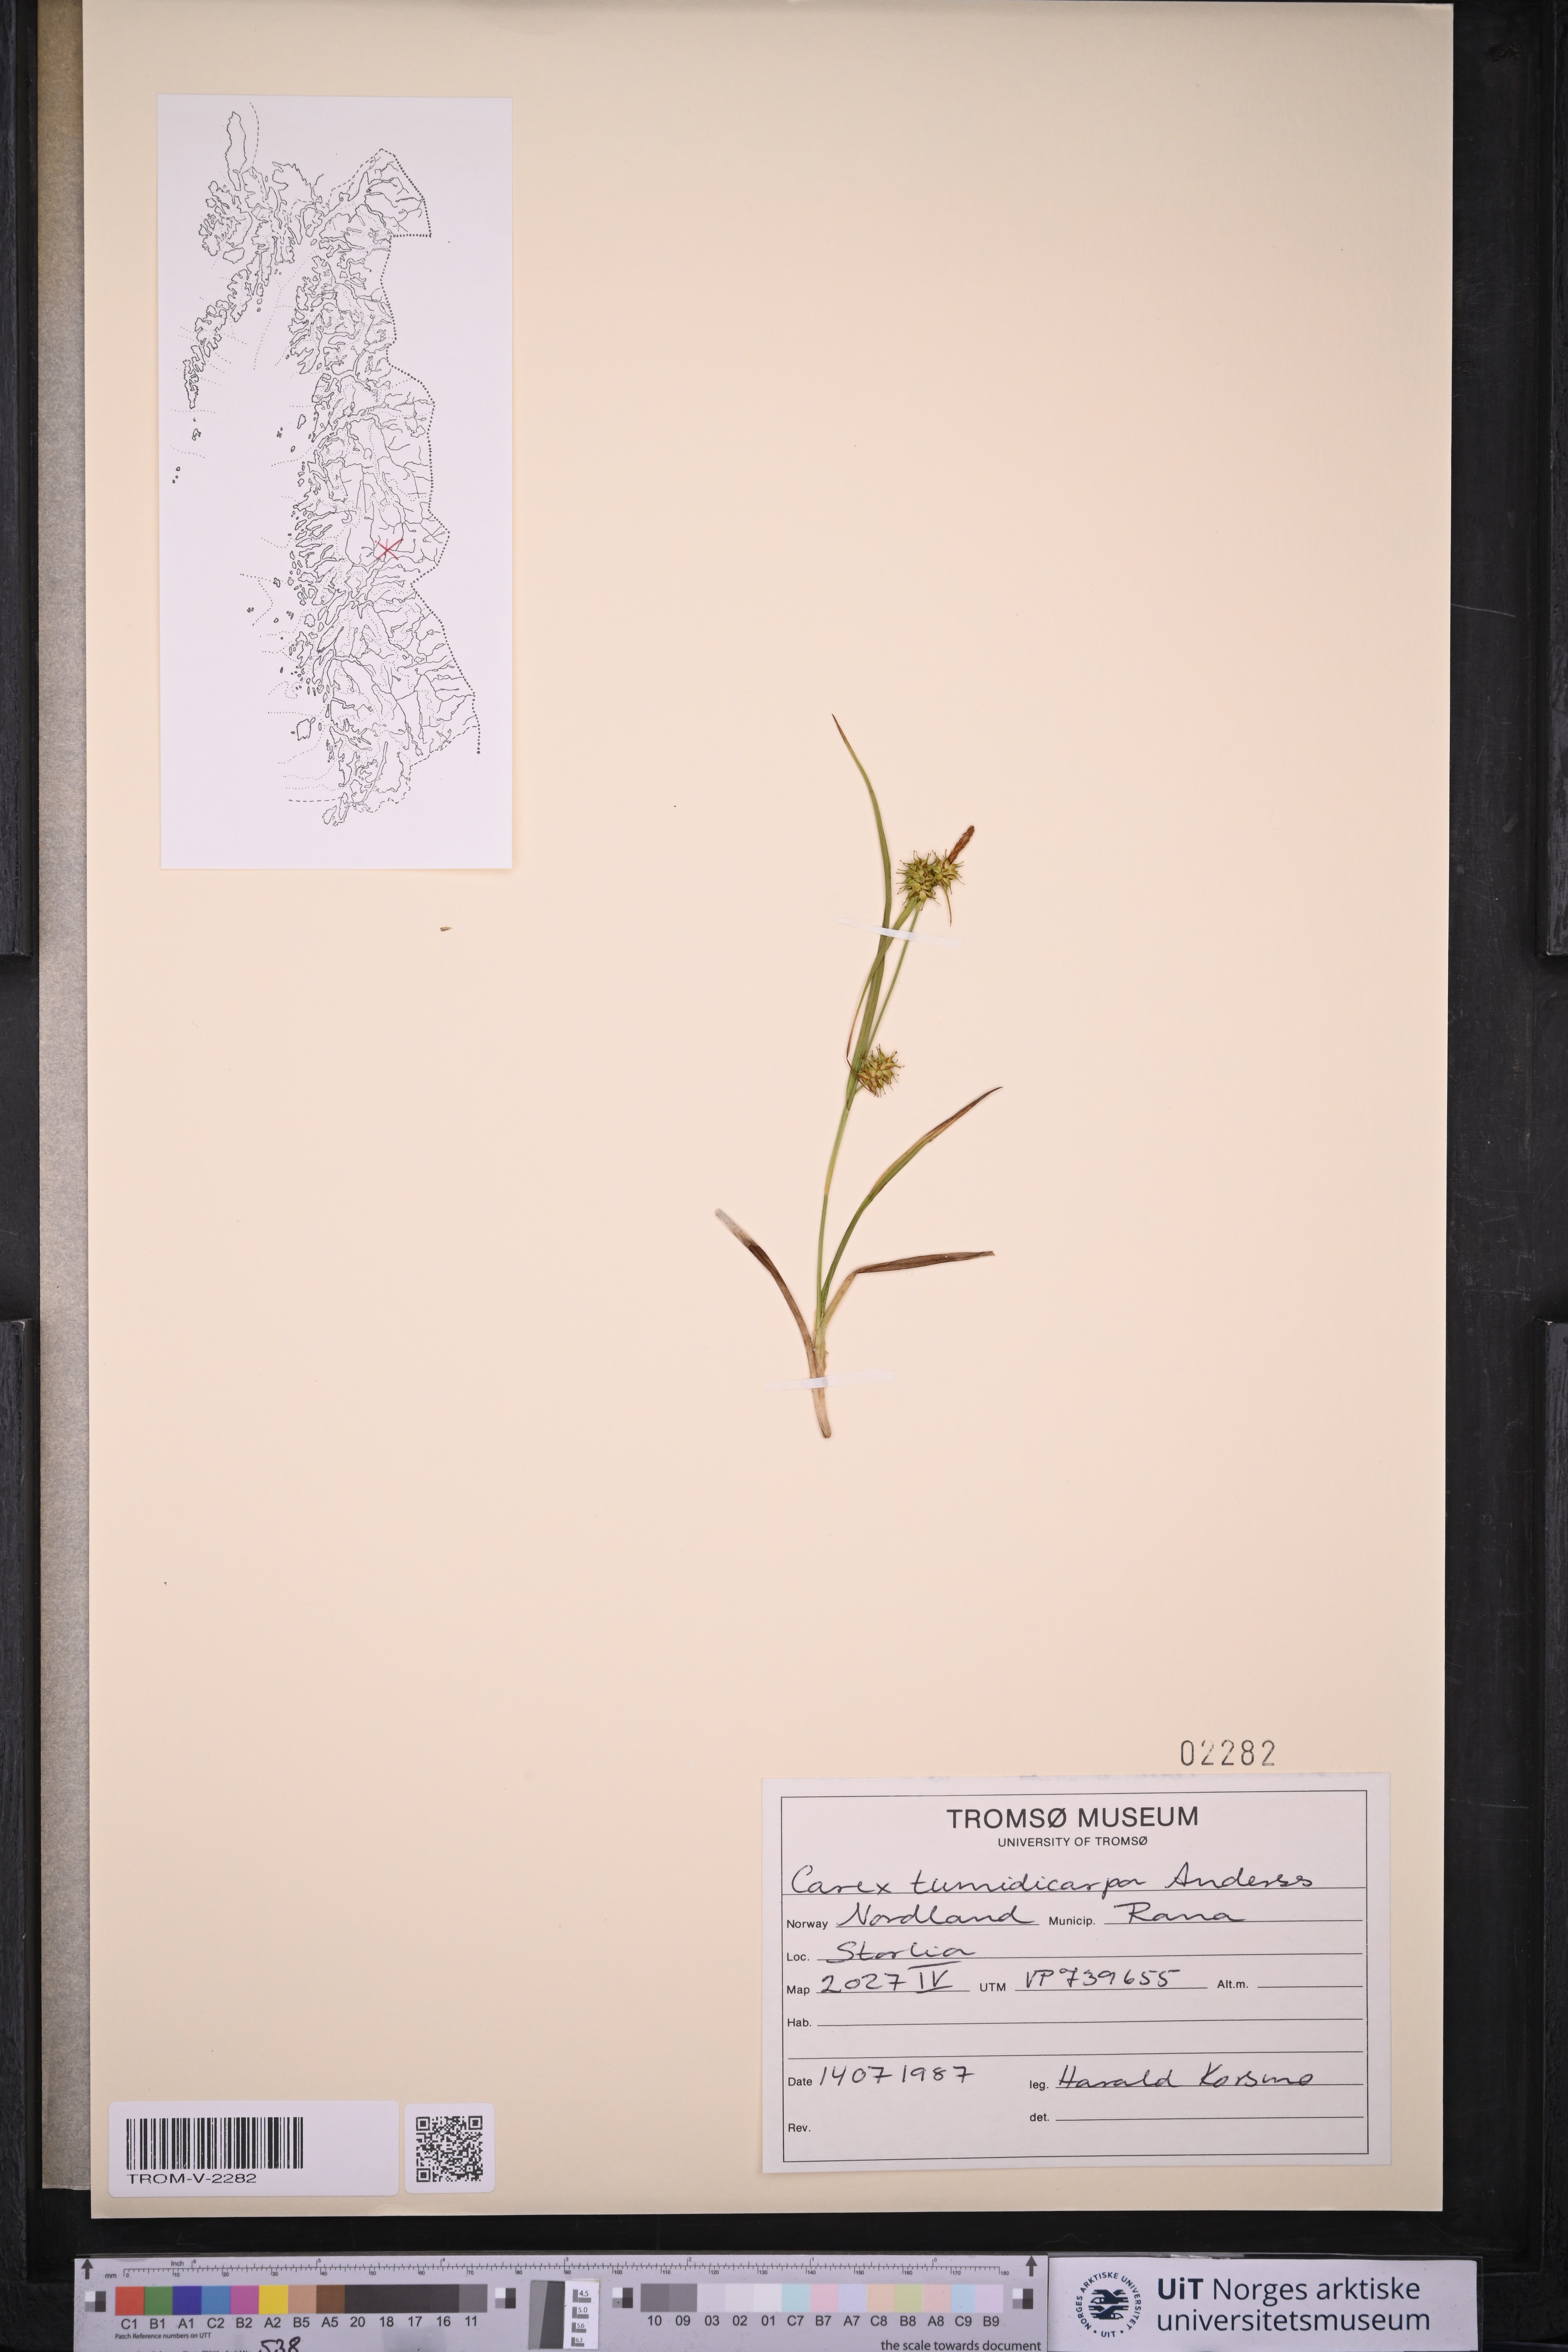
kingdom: Plantae
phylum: Tracheophyta
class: Liliopsida
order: Poales
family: Cyperaceae
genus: Carex
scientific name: Carex demissa
